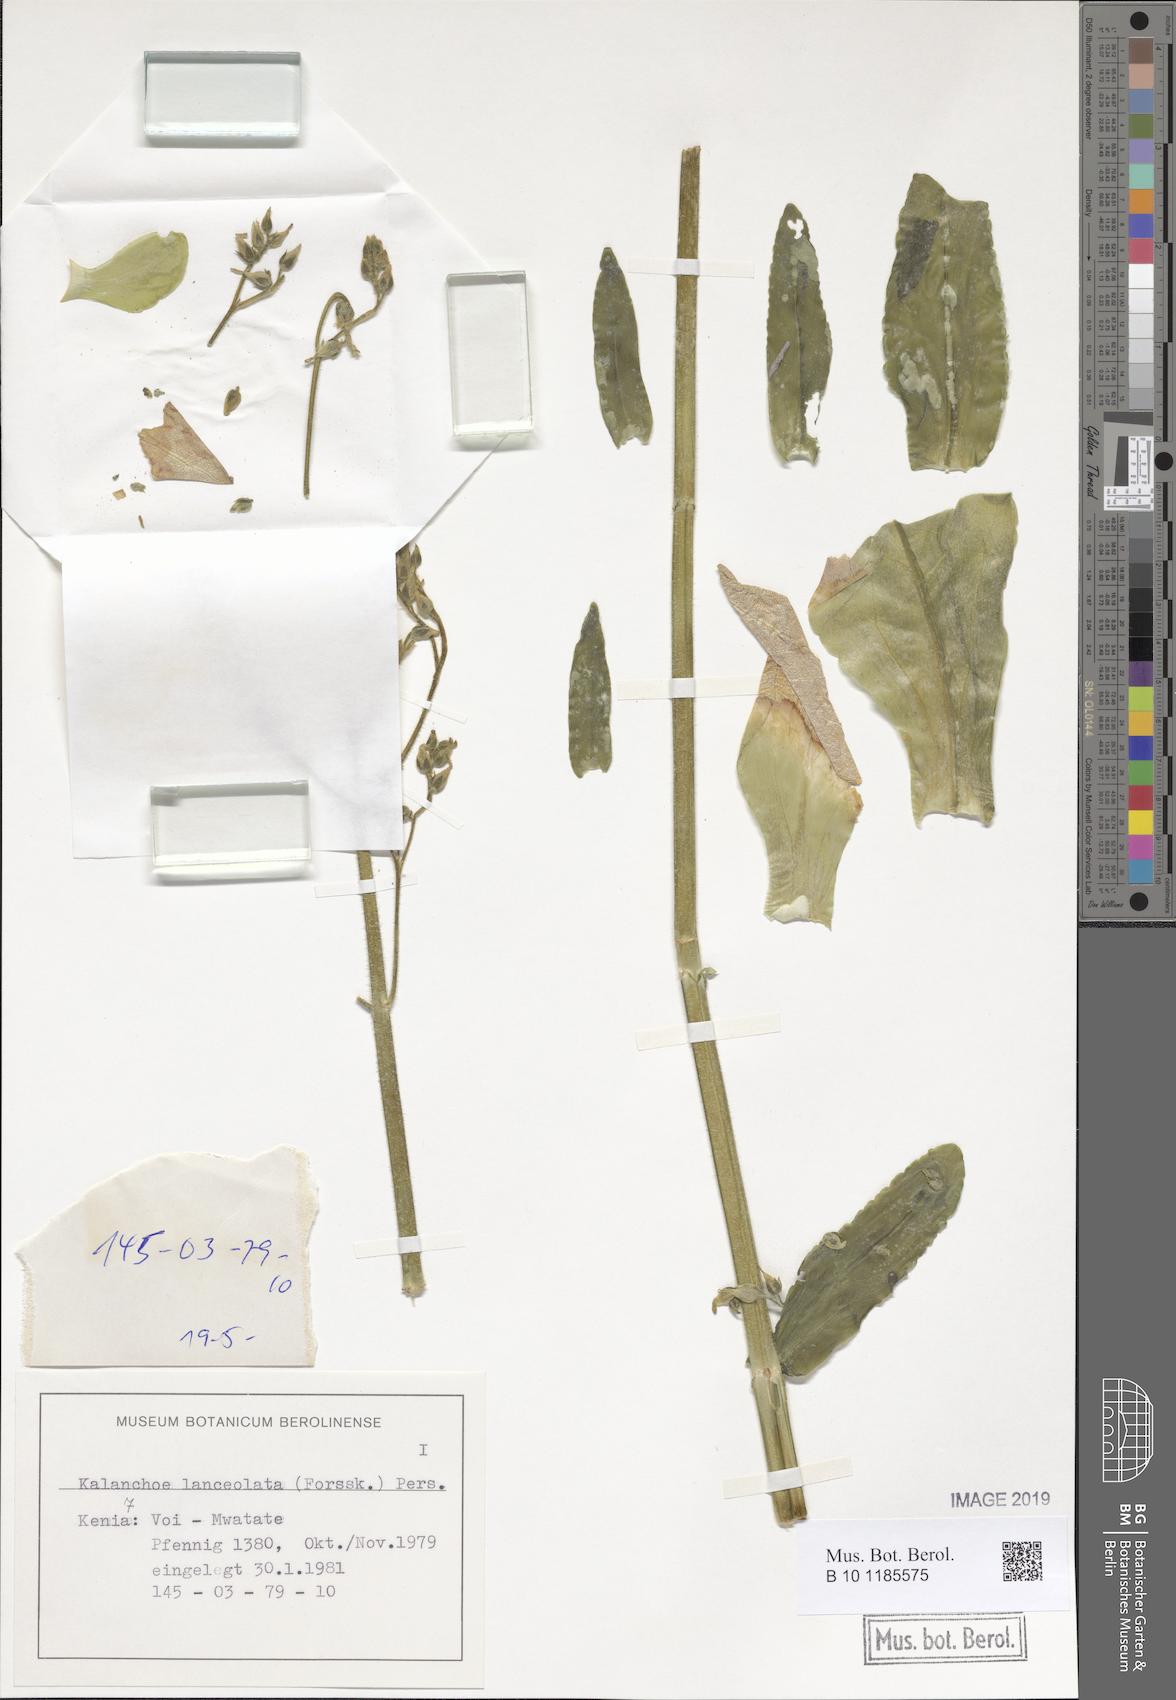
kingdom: Plantae
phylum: Tracheophyta
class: Magnoliopsida
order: Saxifragales
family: Crassulaceae
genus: Kalanchoe
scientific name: Kalanchoe lanceolata
